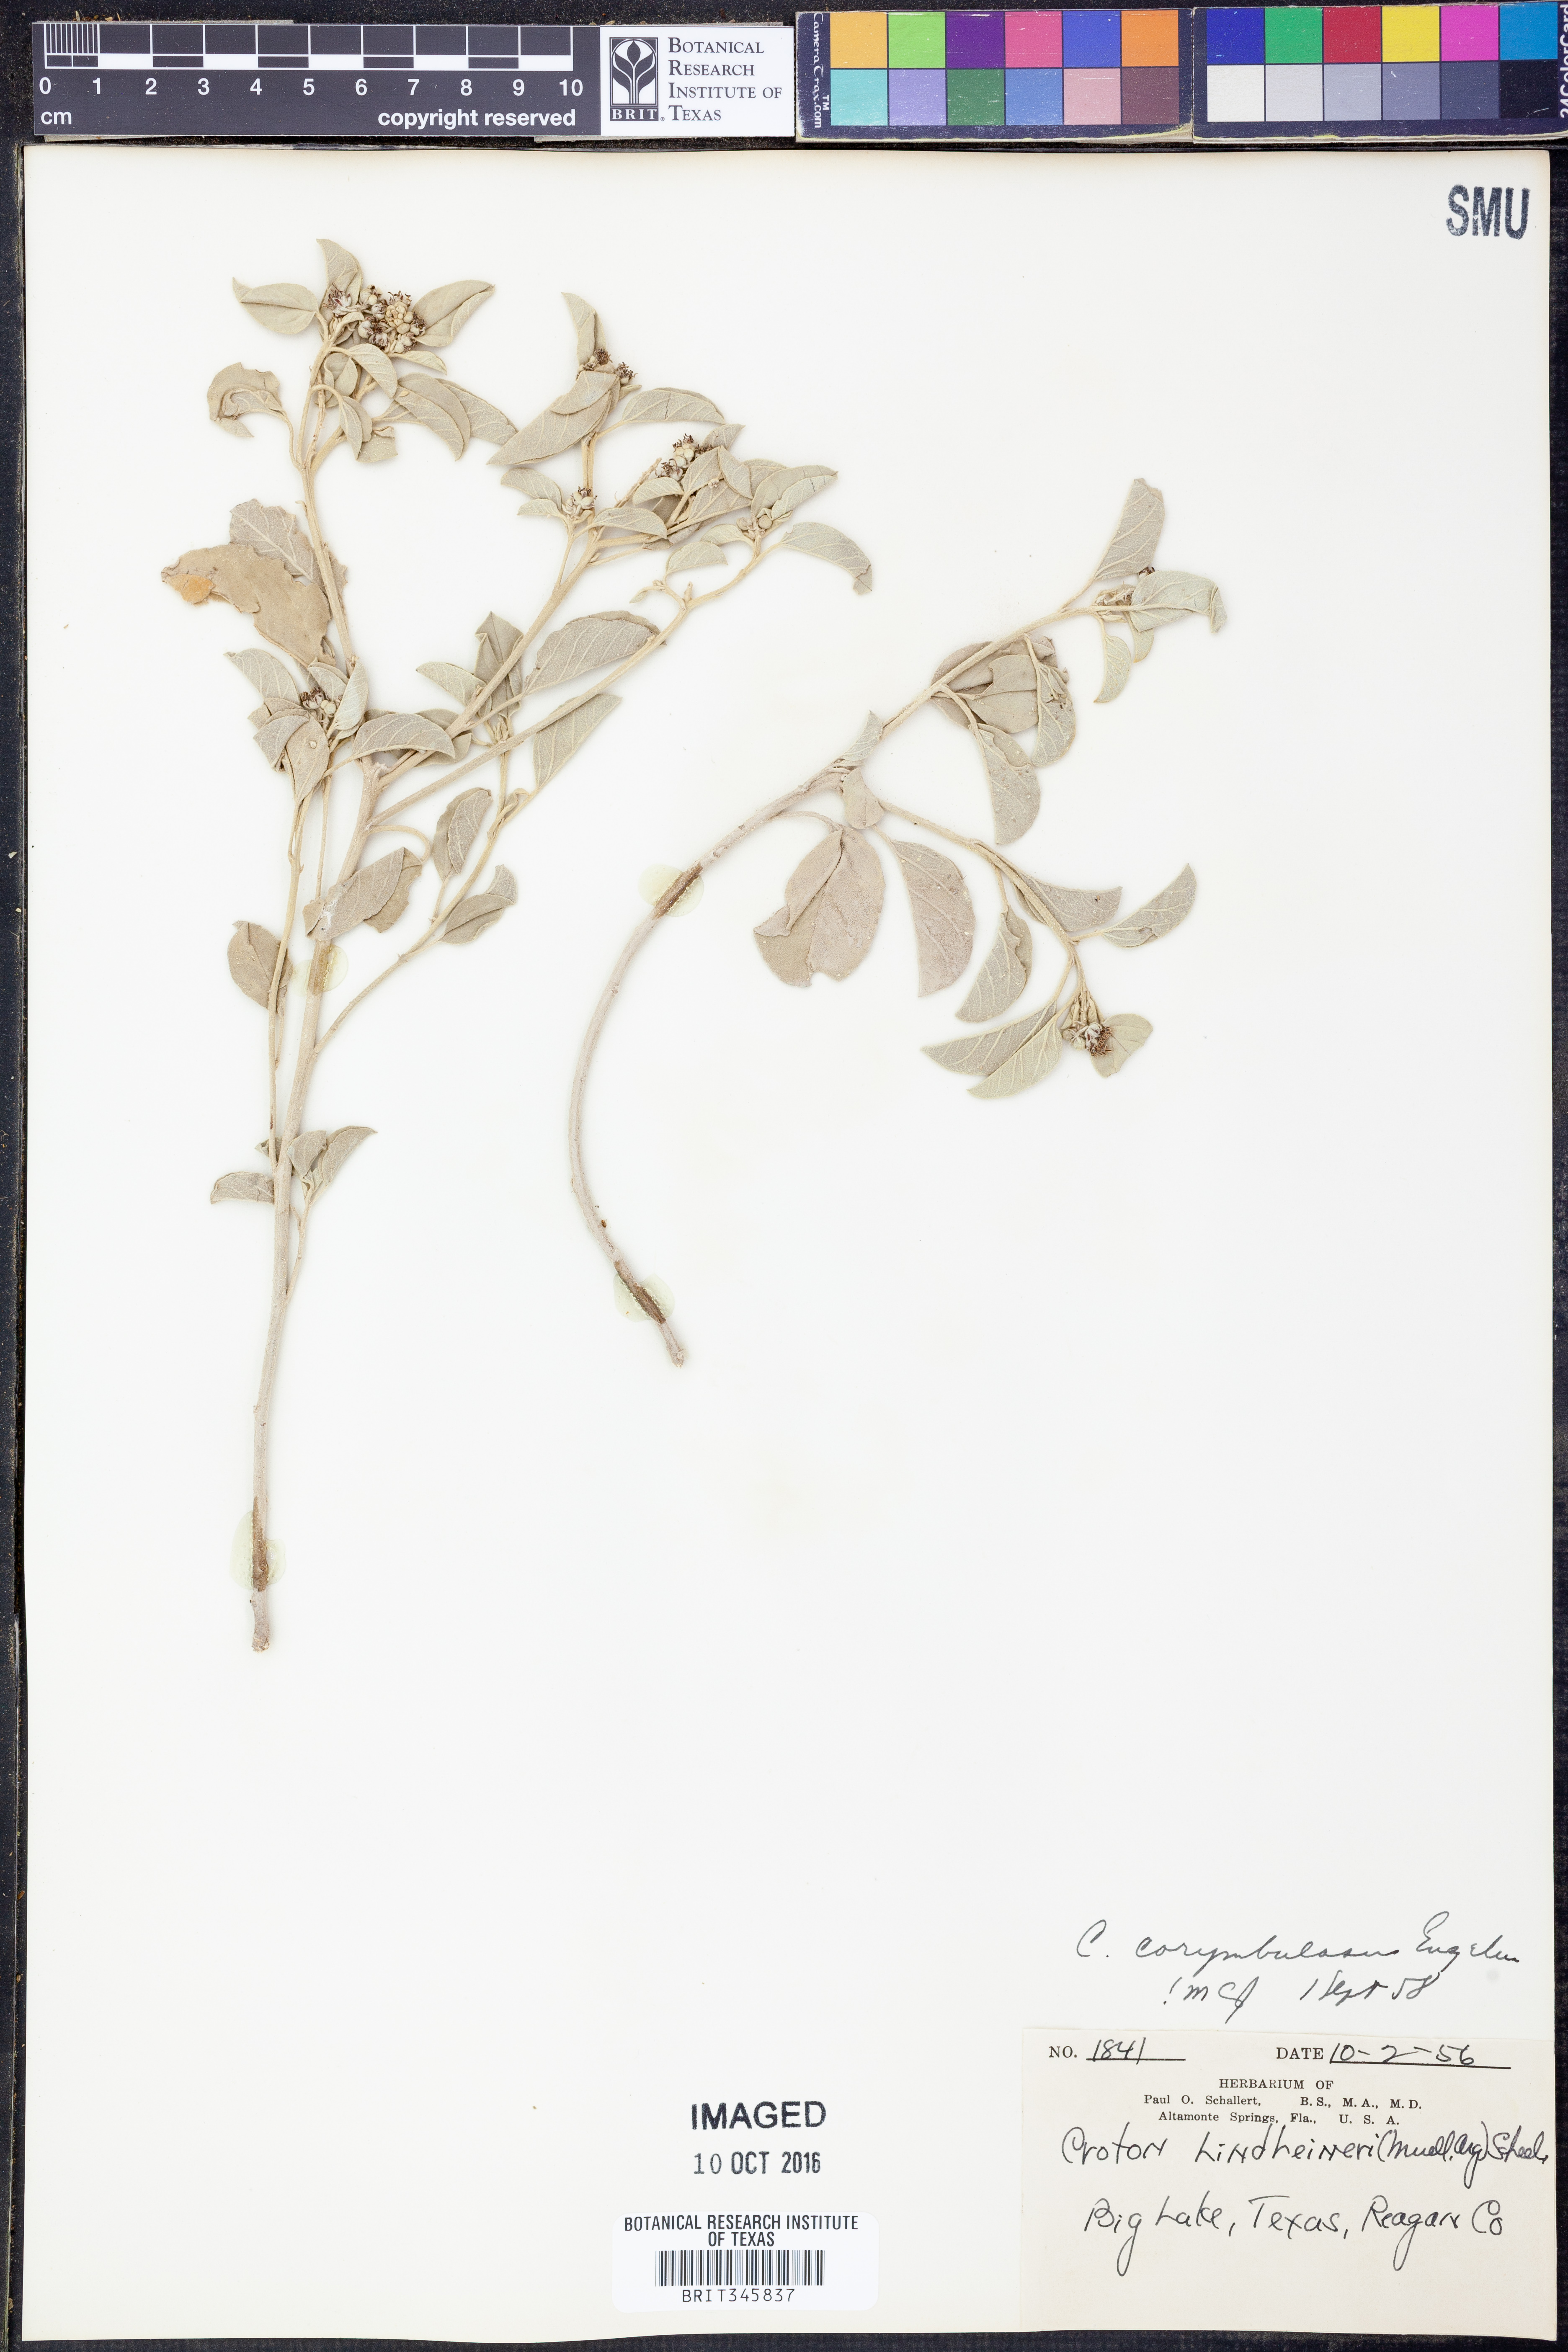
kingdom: Plantae
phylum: Tracheophyta
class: Magnoliopsida
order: Malpighiales
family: Euphorbiaceae
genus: Croton
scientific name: Croton pottsii
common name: Leatherweed
